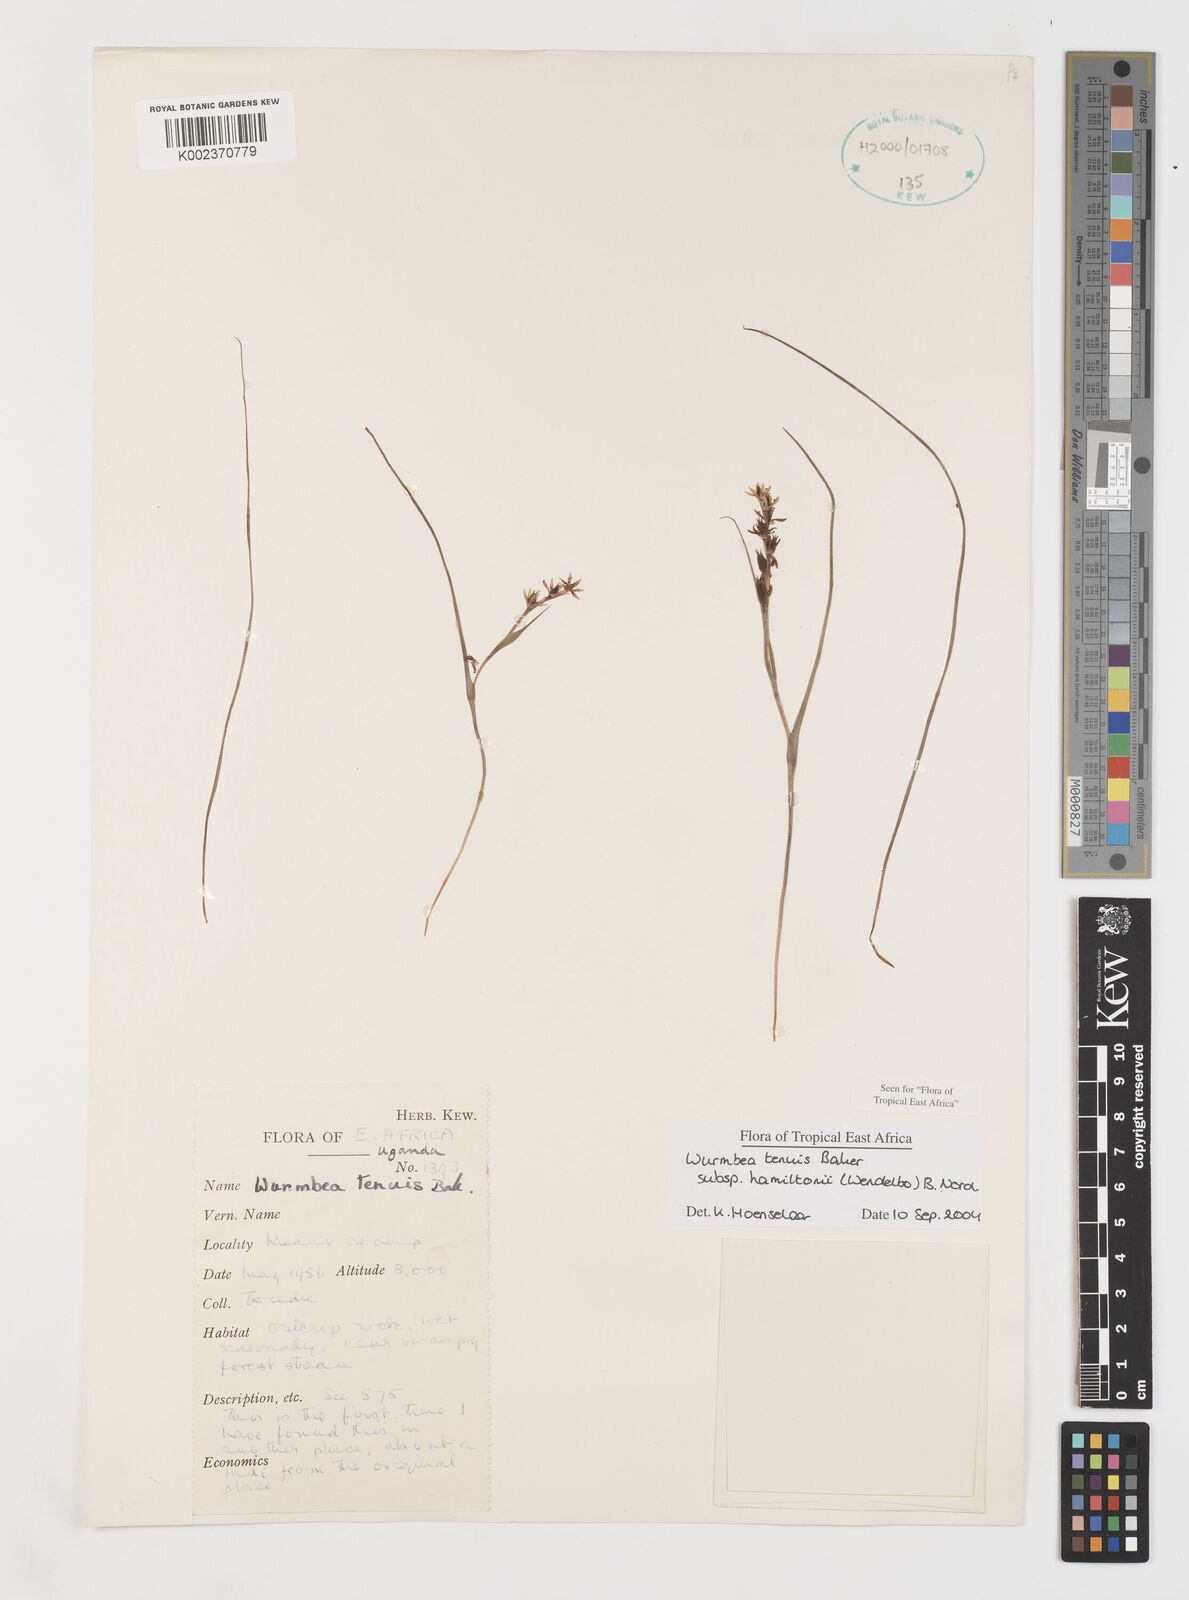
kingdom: Plantae
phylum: Tracheophyta
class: Liliopsida
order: Liliales
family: Colchicaceae
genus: Wurmbea
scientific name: Wurmbea tenuis
